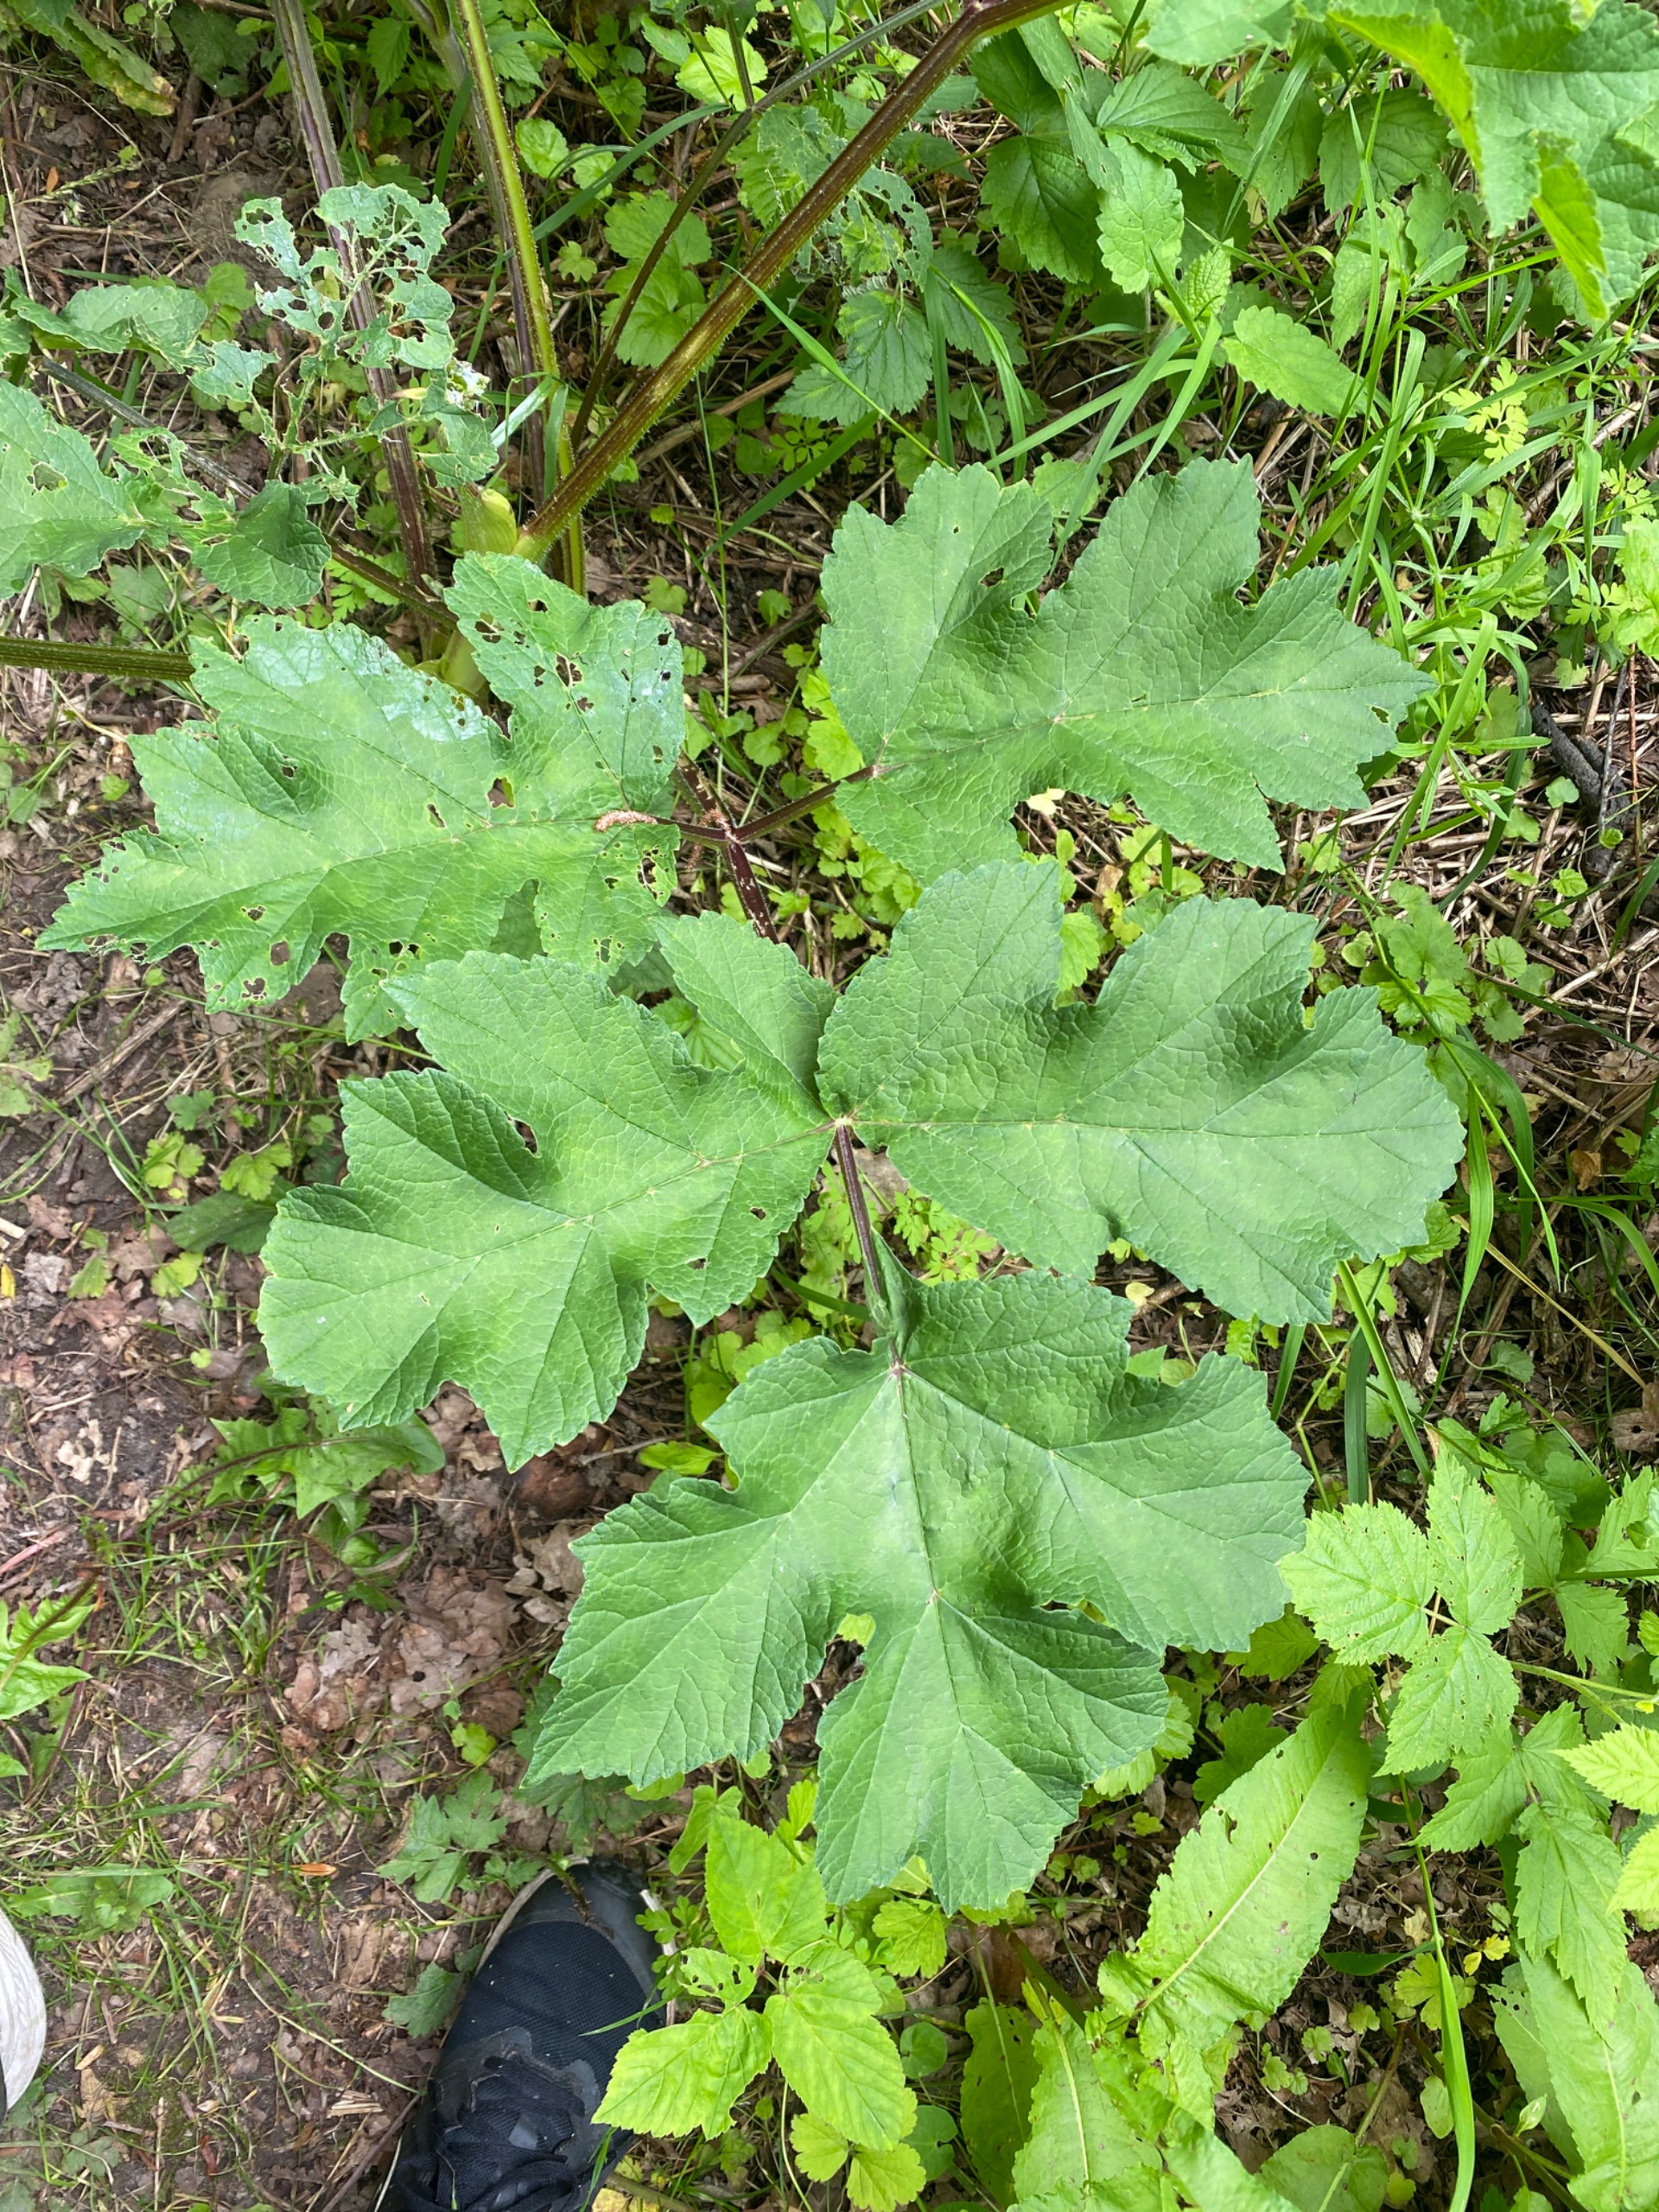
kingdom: Plantae
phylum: Tracheophyta
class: Magnoliopsida
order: Apiales
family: Apiaceae
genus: Heracleum
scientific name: Heracleum sphondylium
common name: Almindelig bjørneklo
